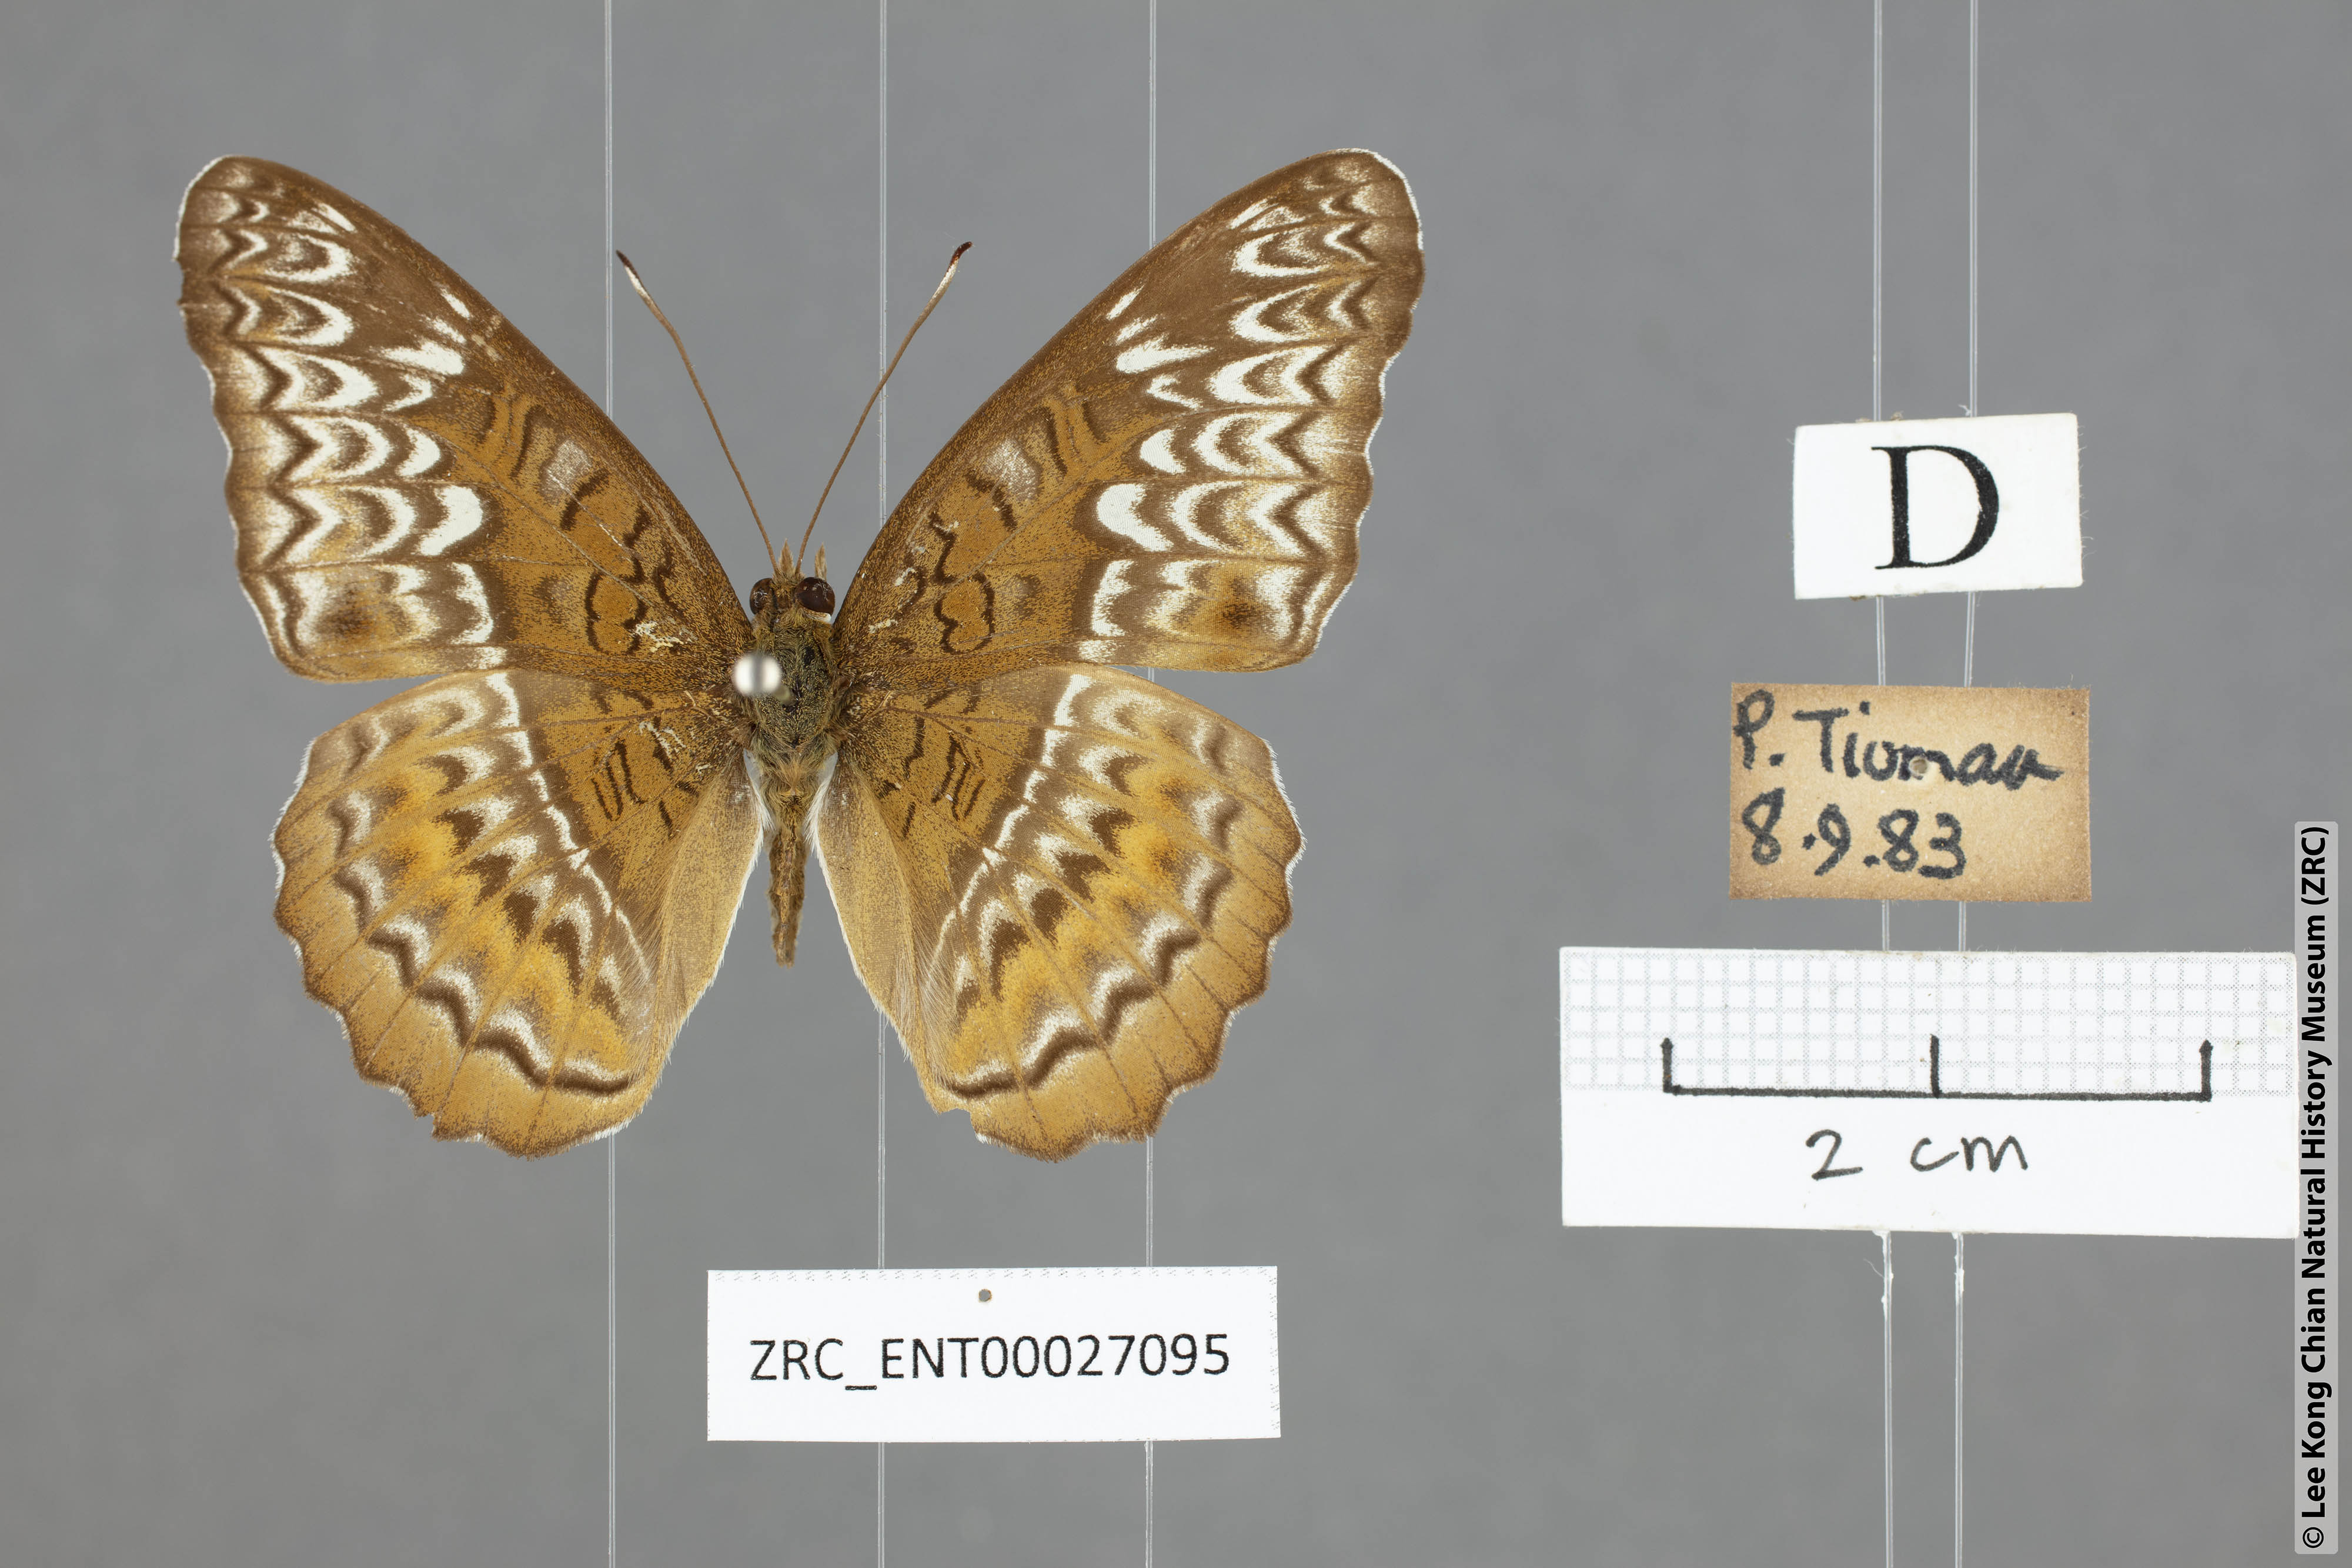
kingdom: Animalia
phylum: Arthropoda
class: Insecta
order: Lepidoptera
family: Nymphalidae
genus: Lebadea
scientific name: Lebadea martha
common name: Knight
